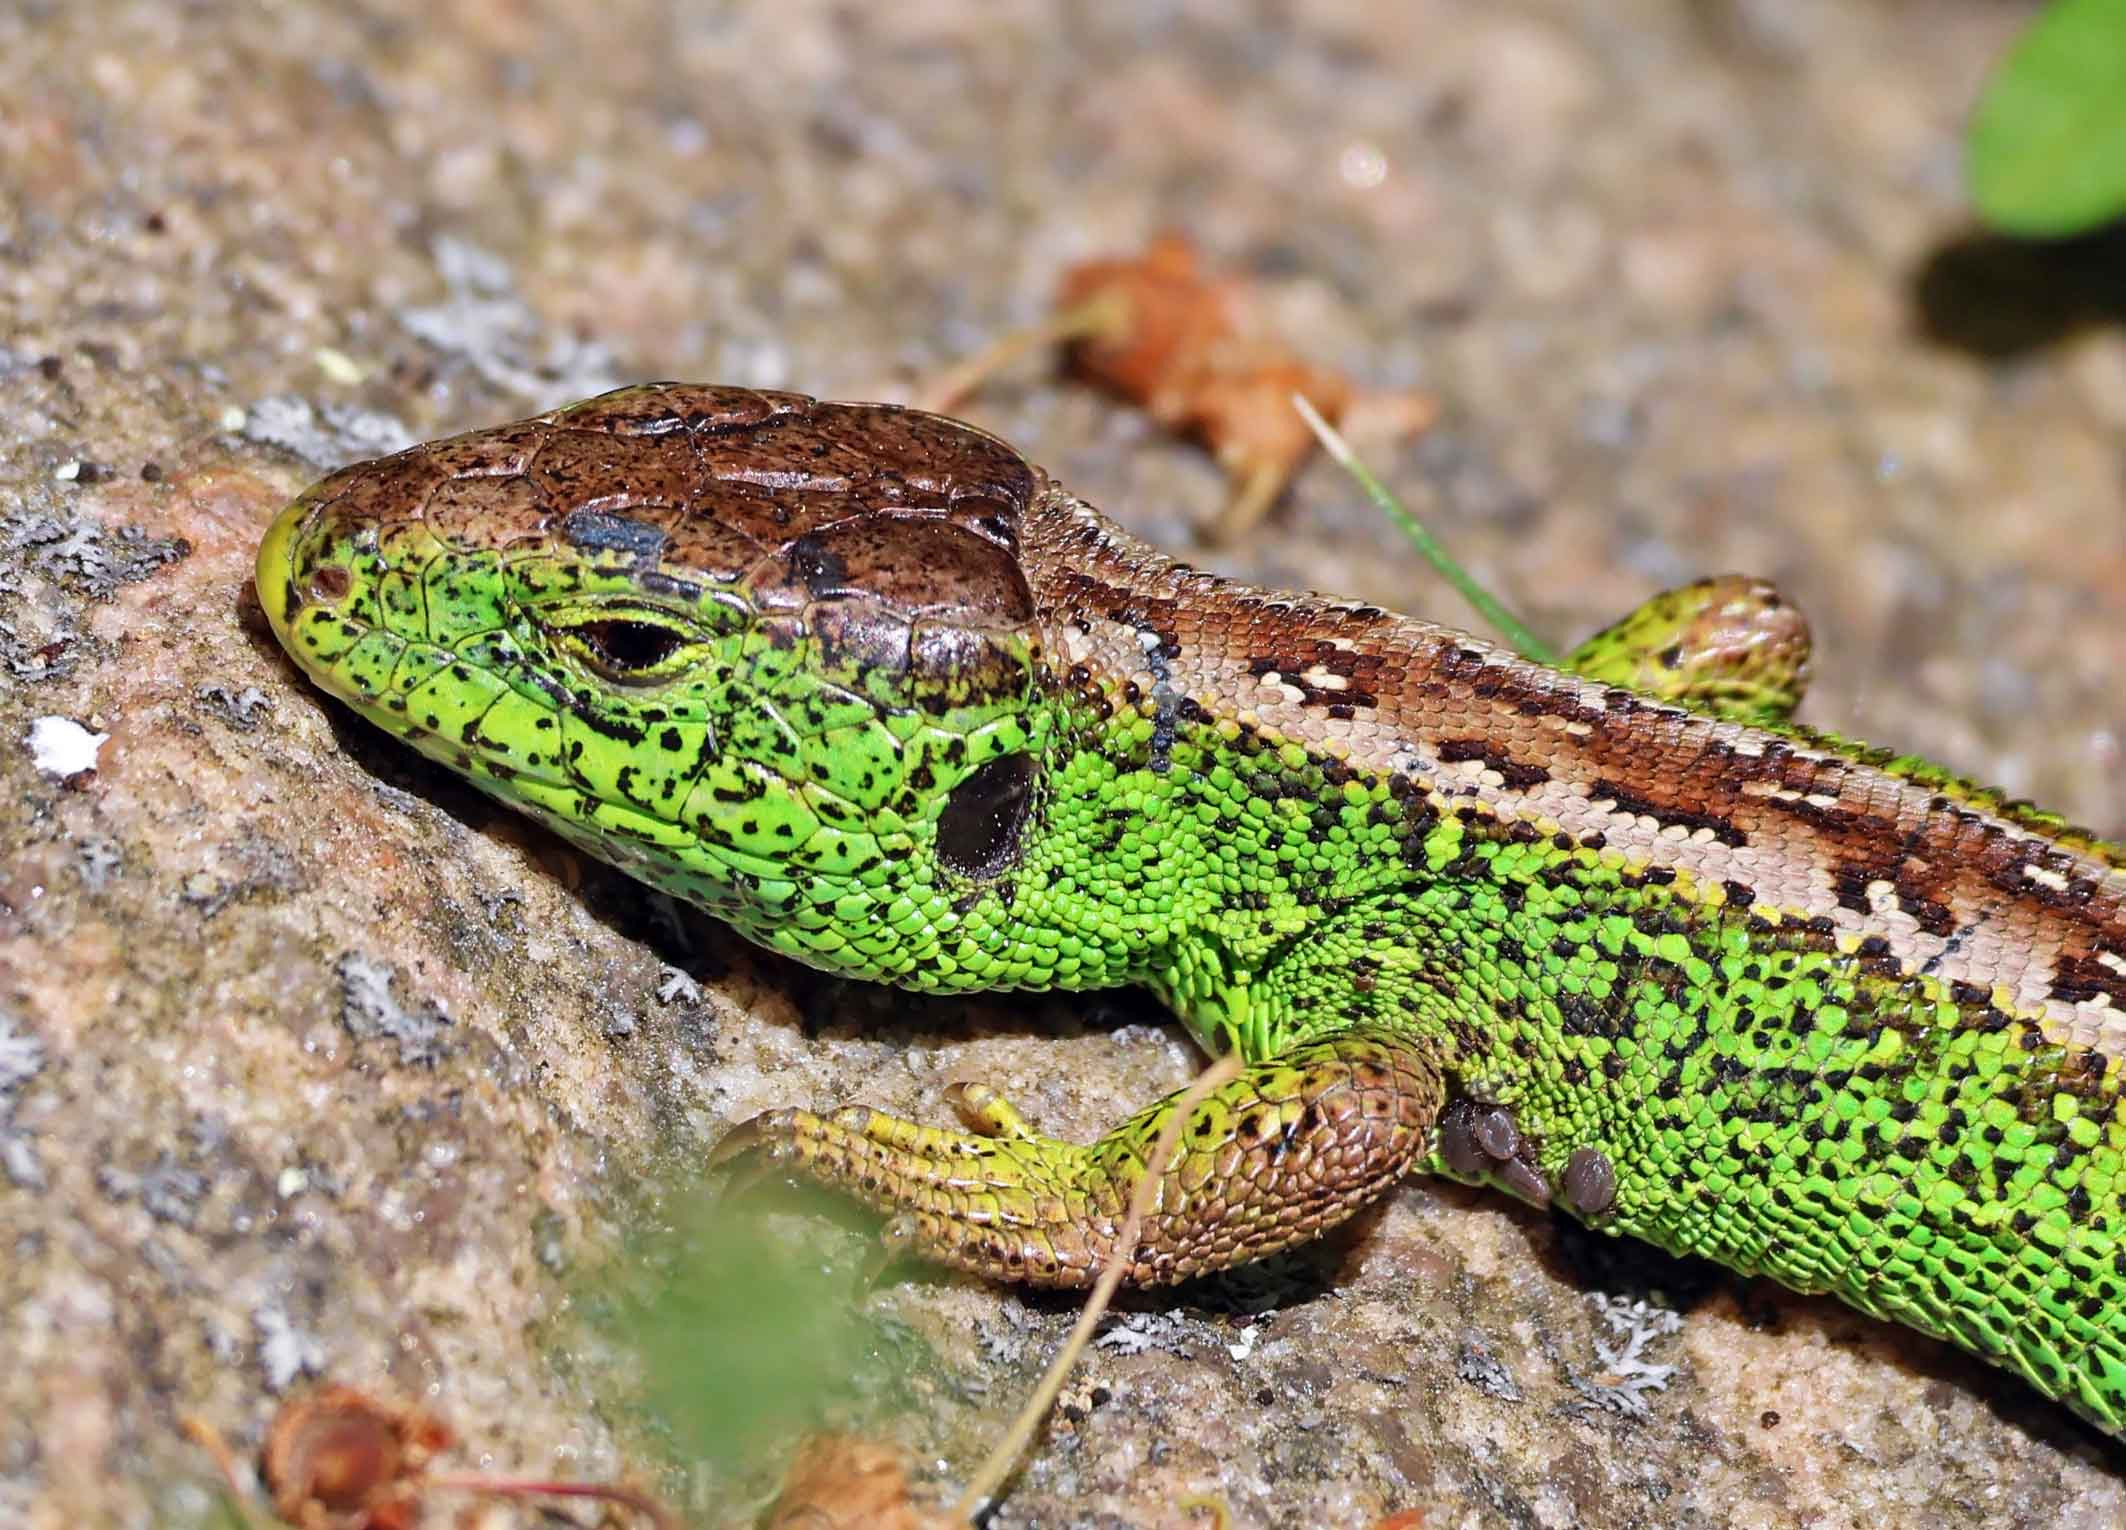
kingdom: Animalia
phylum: Chordata
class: Squamata
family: Lacertidae
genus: Lacerta
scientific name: Lacerta agilis
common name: Markfirben
